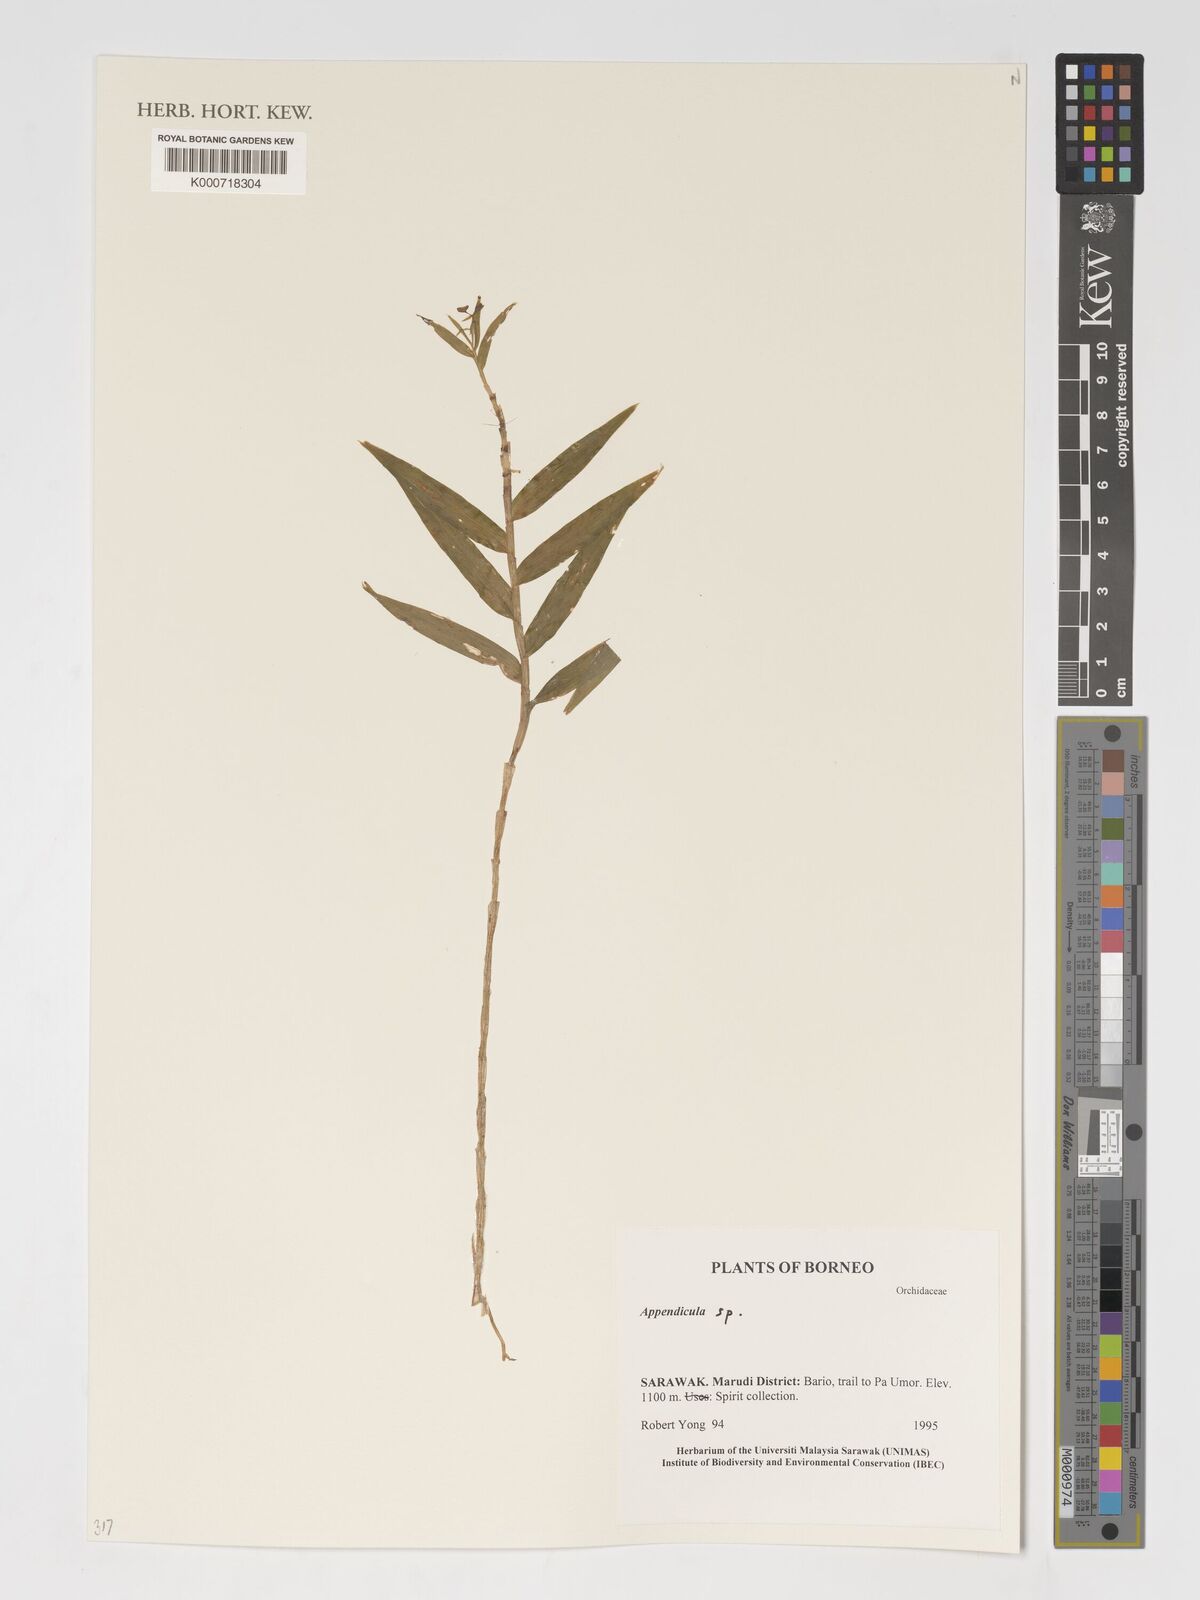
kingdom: Plantae
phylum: Tracheophyta
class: Liliopsida
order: Asparagales
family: Orchidaceae
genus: Appendicula
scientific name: Appendicula
